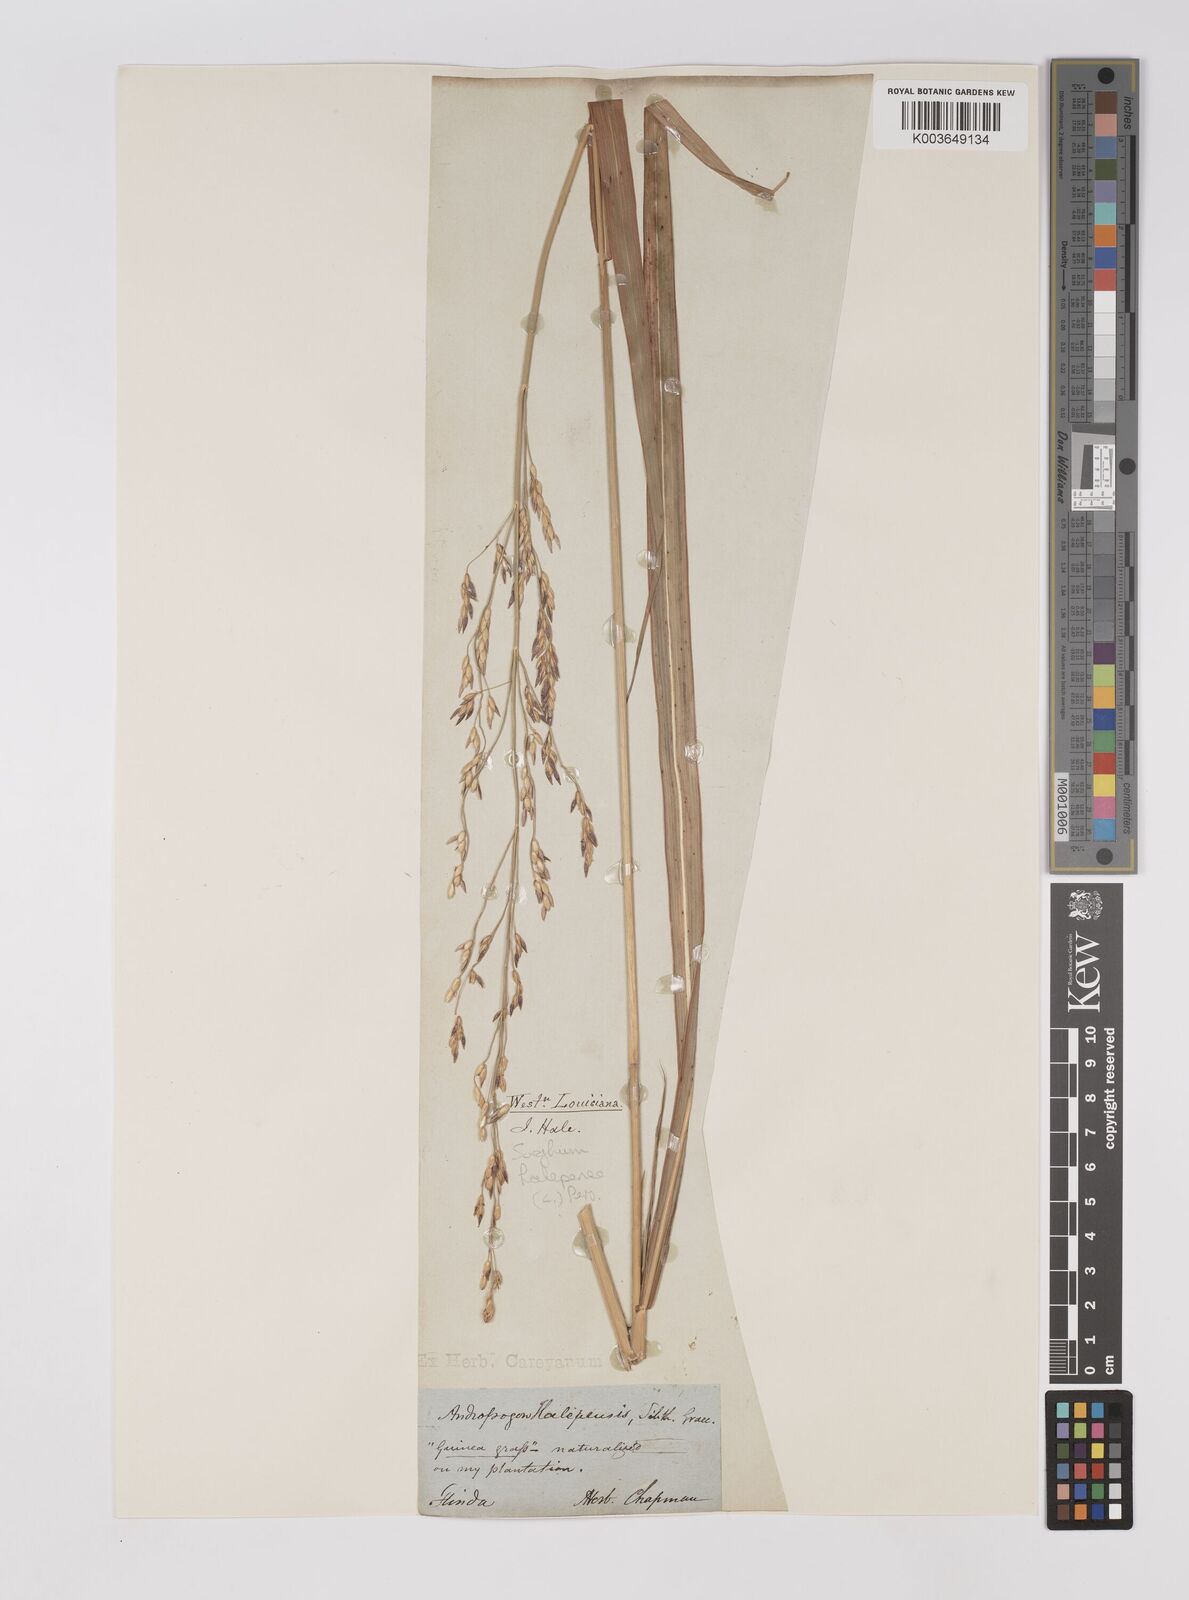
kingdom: Plantae
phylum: Tracheophyta
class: Liliopsida
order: Poales
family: Poaceae
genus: Sorghum
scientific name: Sorghum halepense
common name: Johnson-grass
